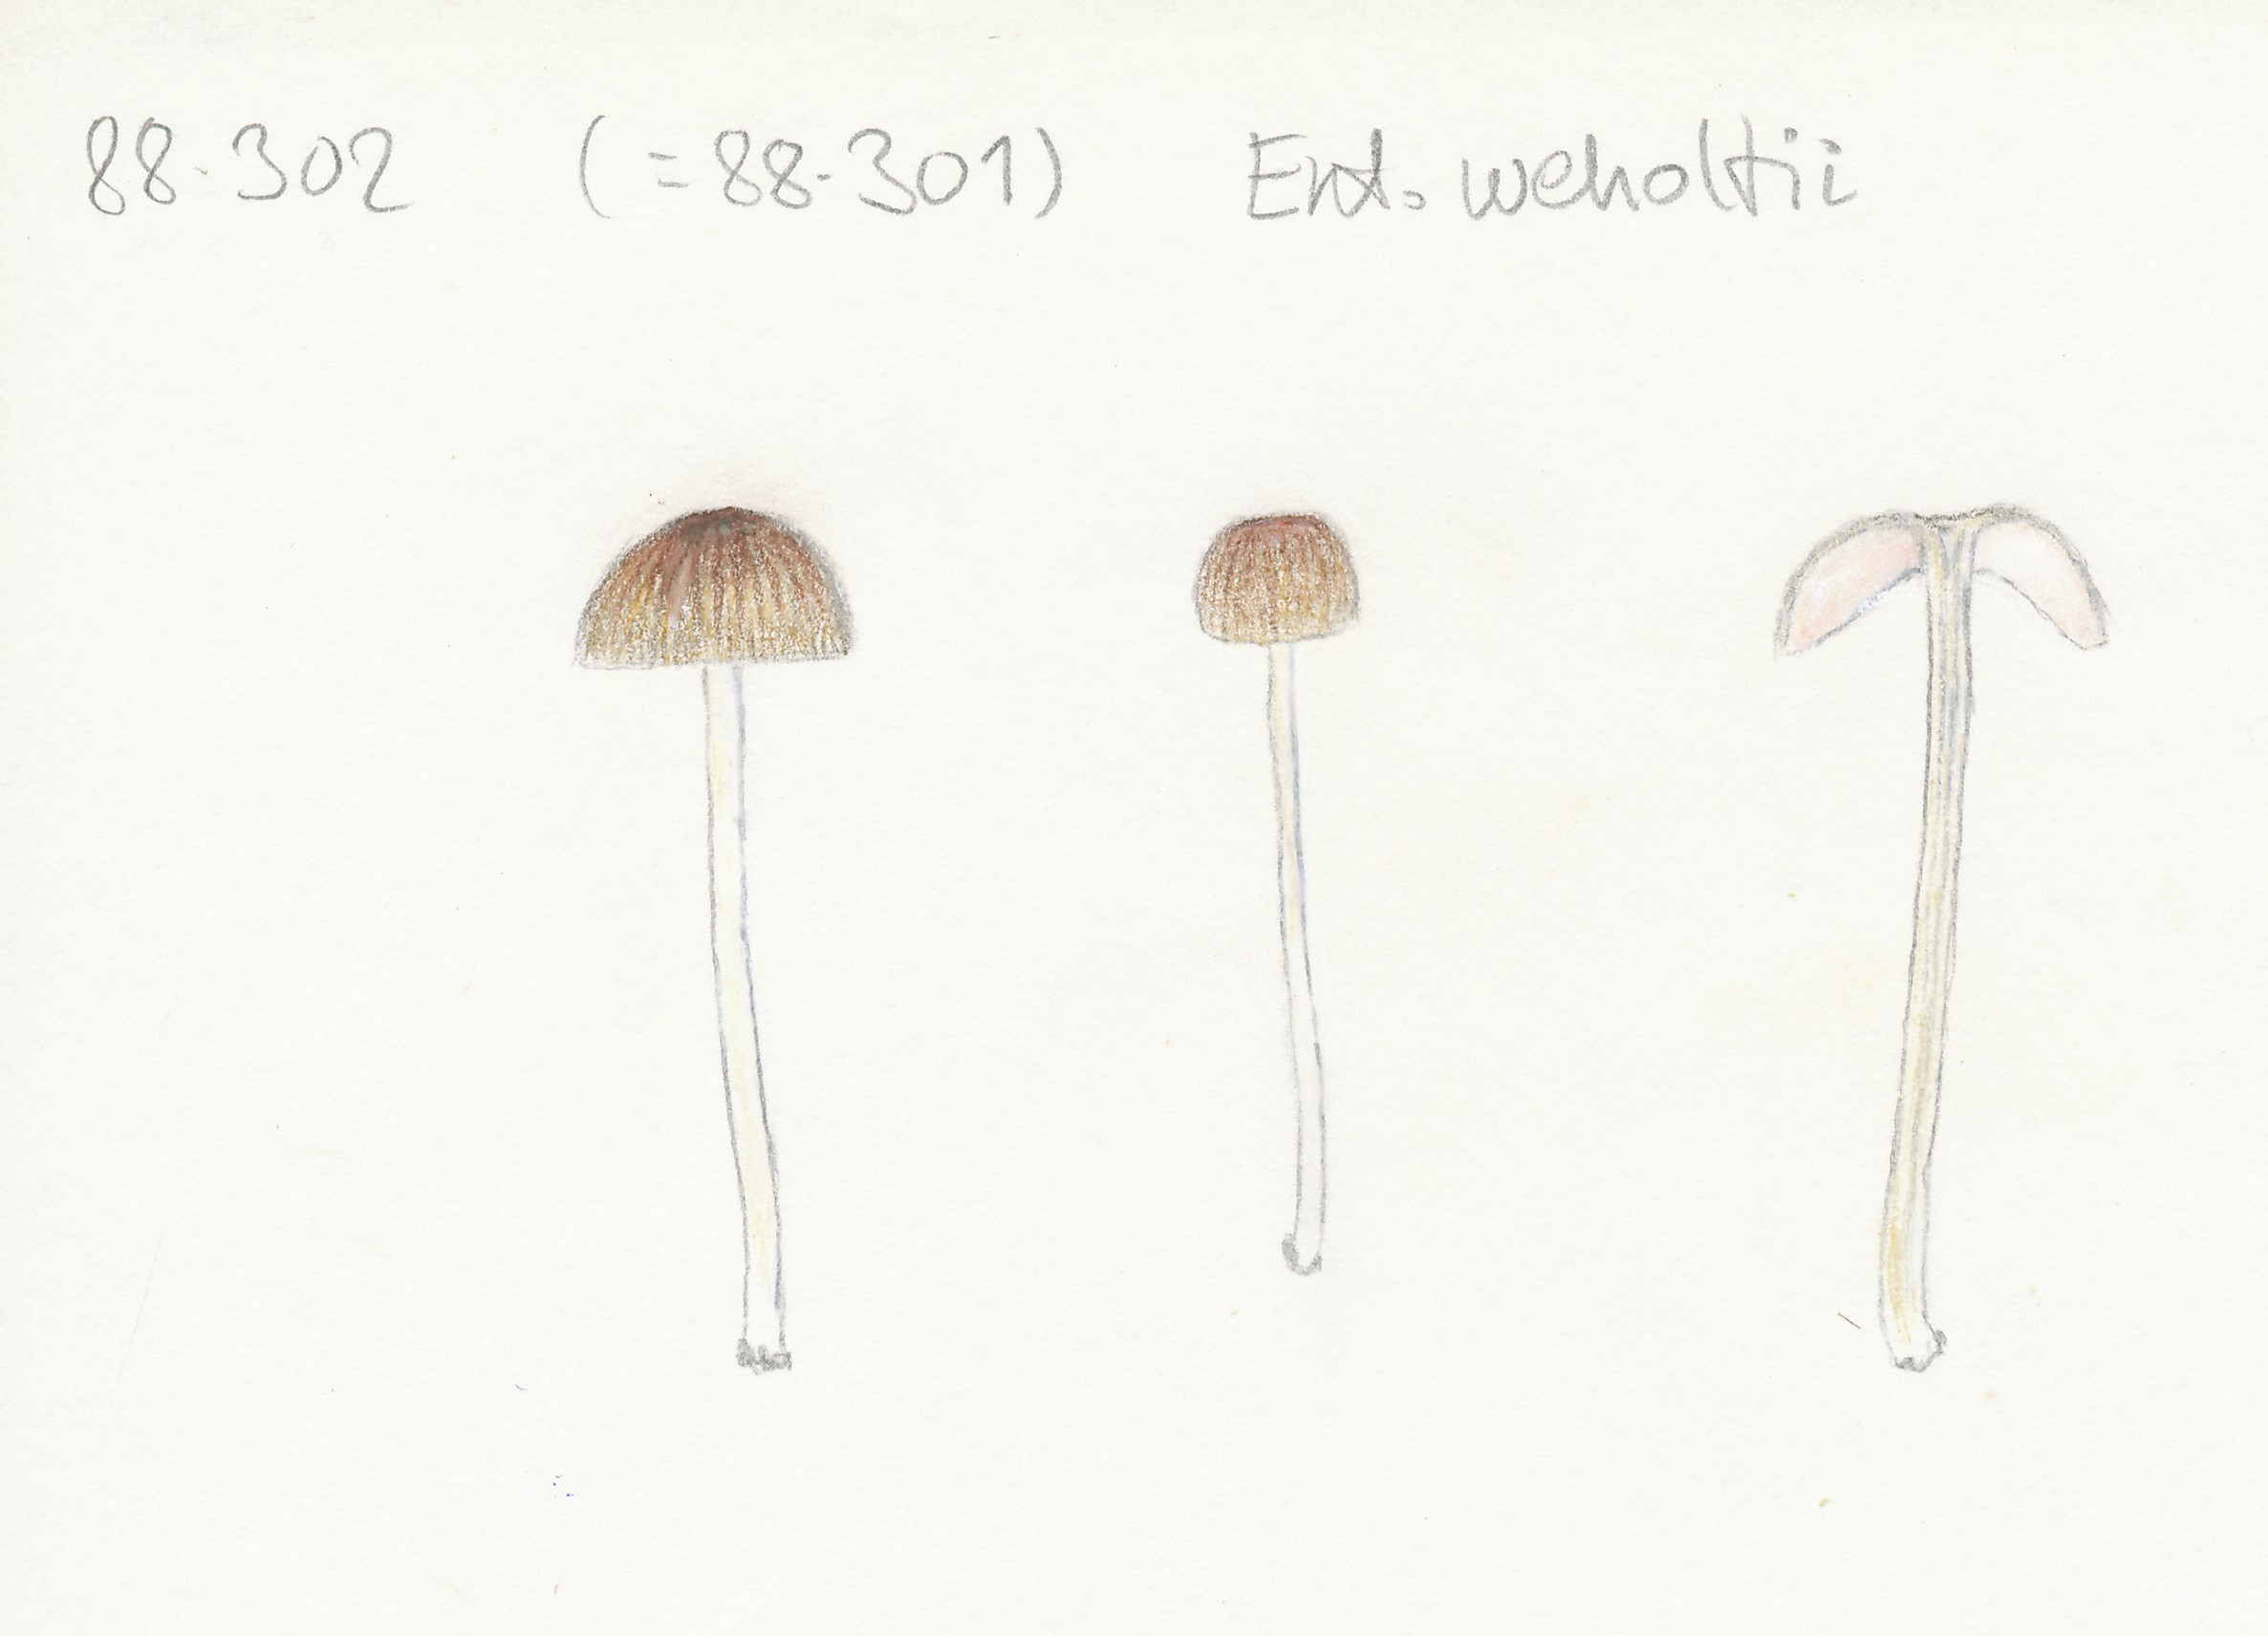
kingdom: Fungi
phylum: Basidiomycota
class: Agaricomycetes
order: Agaricales
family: Entolomataceae
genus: Entoloma
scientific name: Entoloma olivaceotinctum
